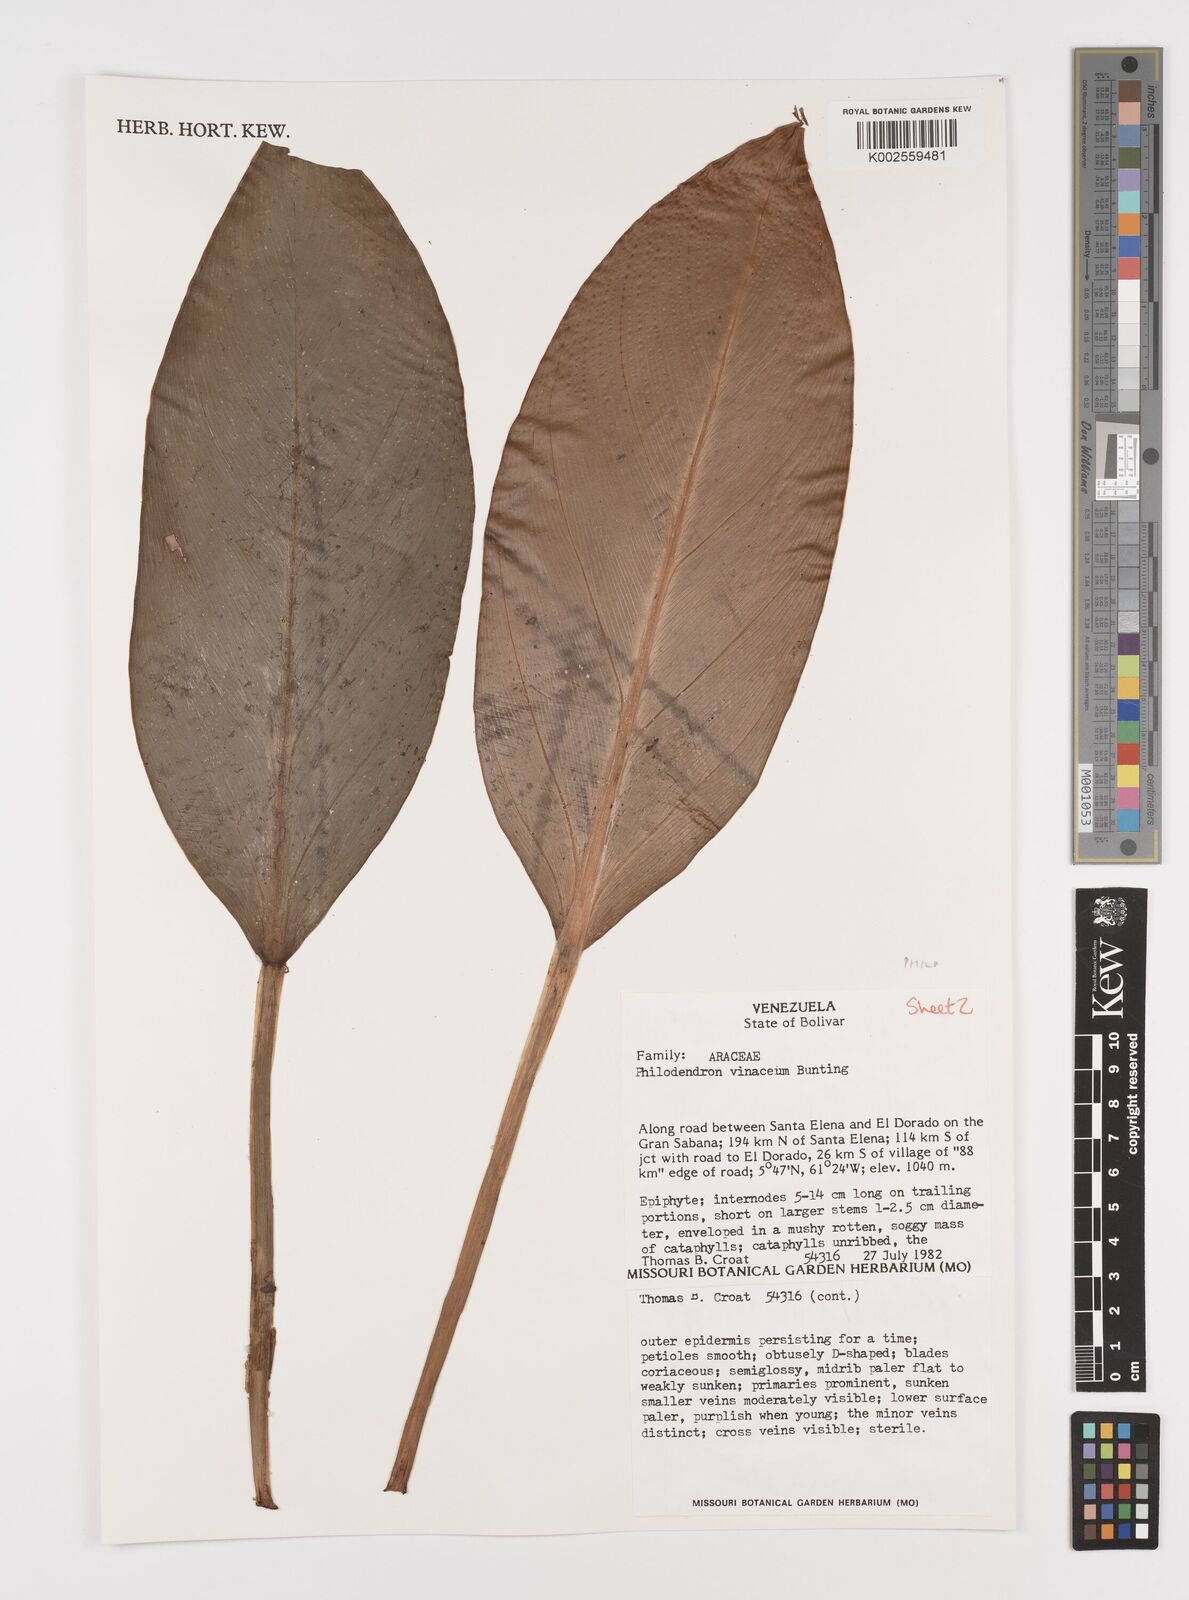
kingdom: Plantae
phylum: Tracheophyta
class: Liliopsida
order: Alismatales
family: Araceae
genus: Philodendron
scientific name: Philodendron vinaceum
